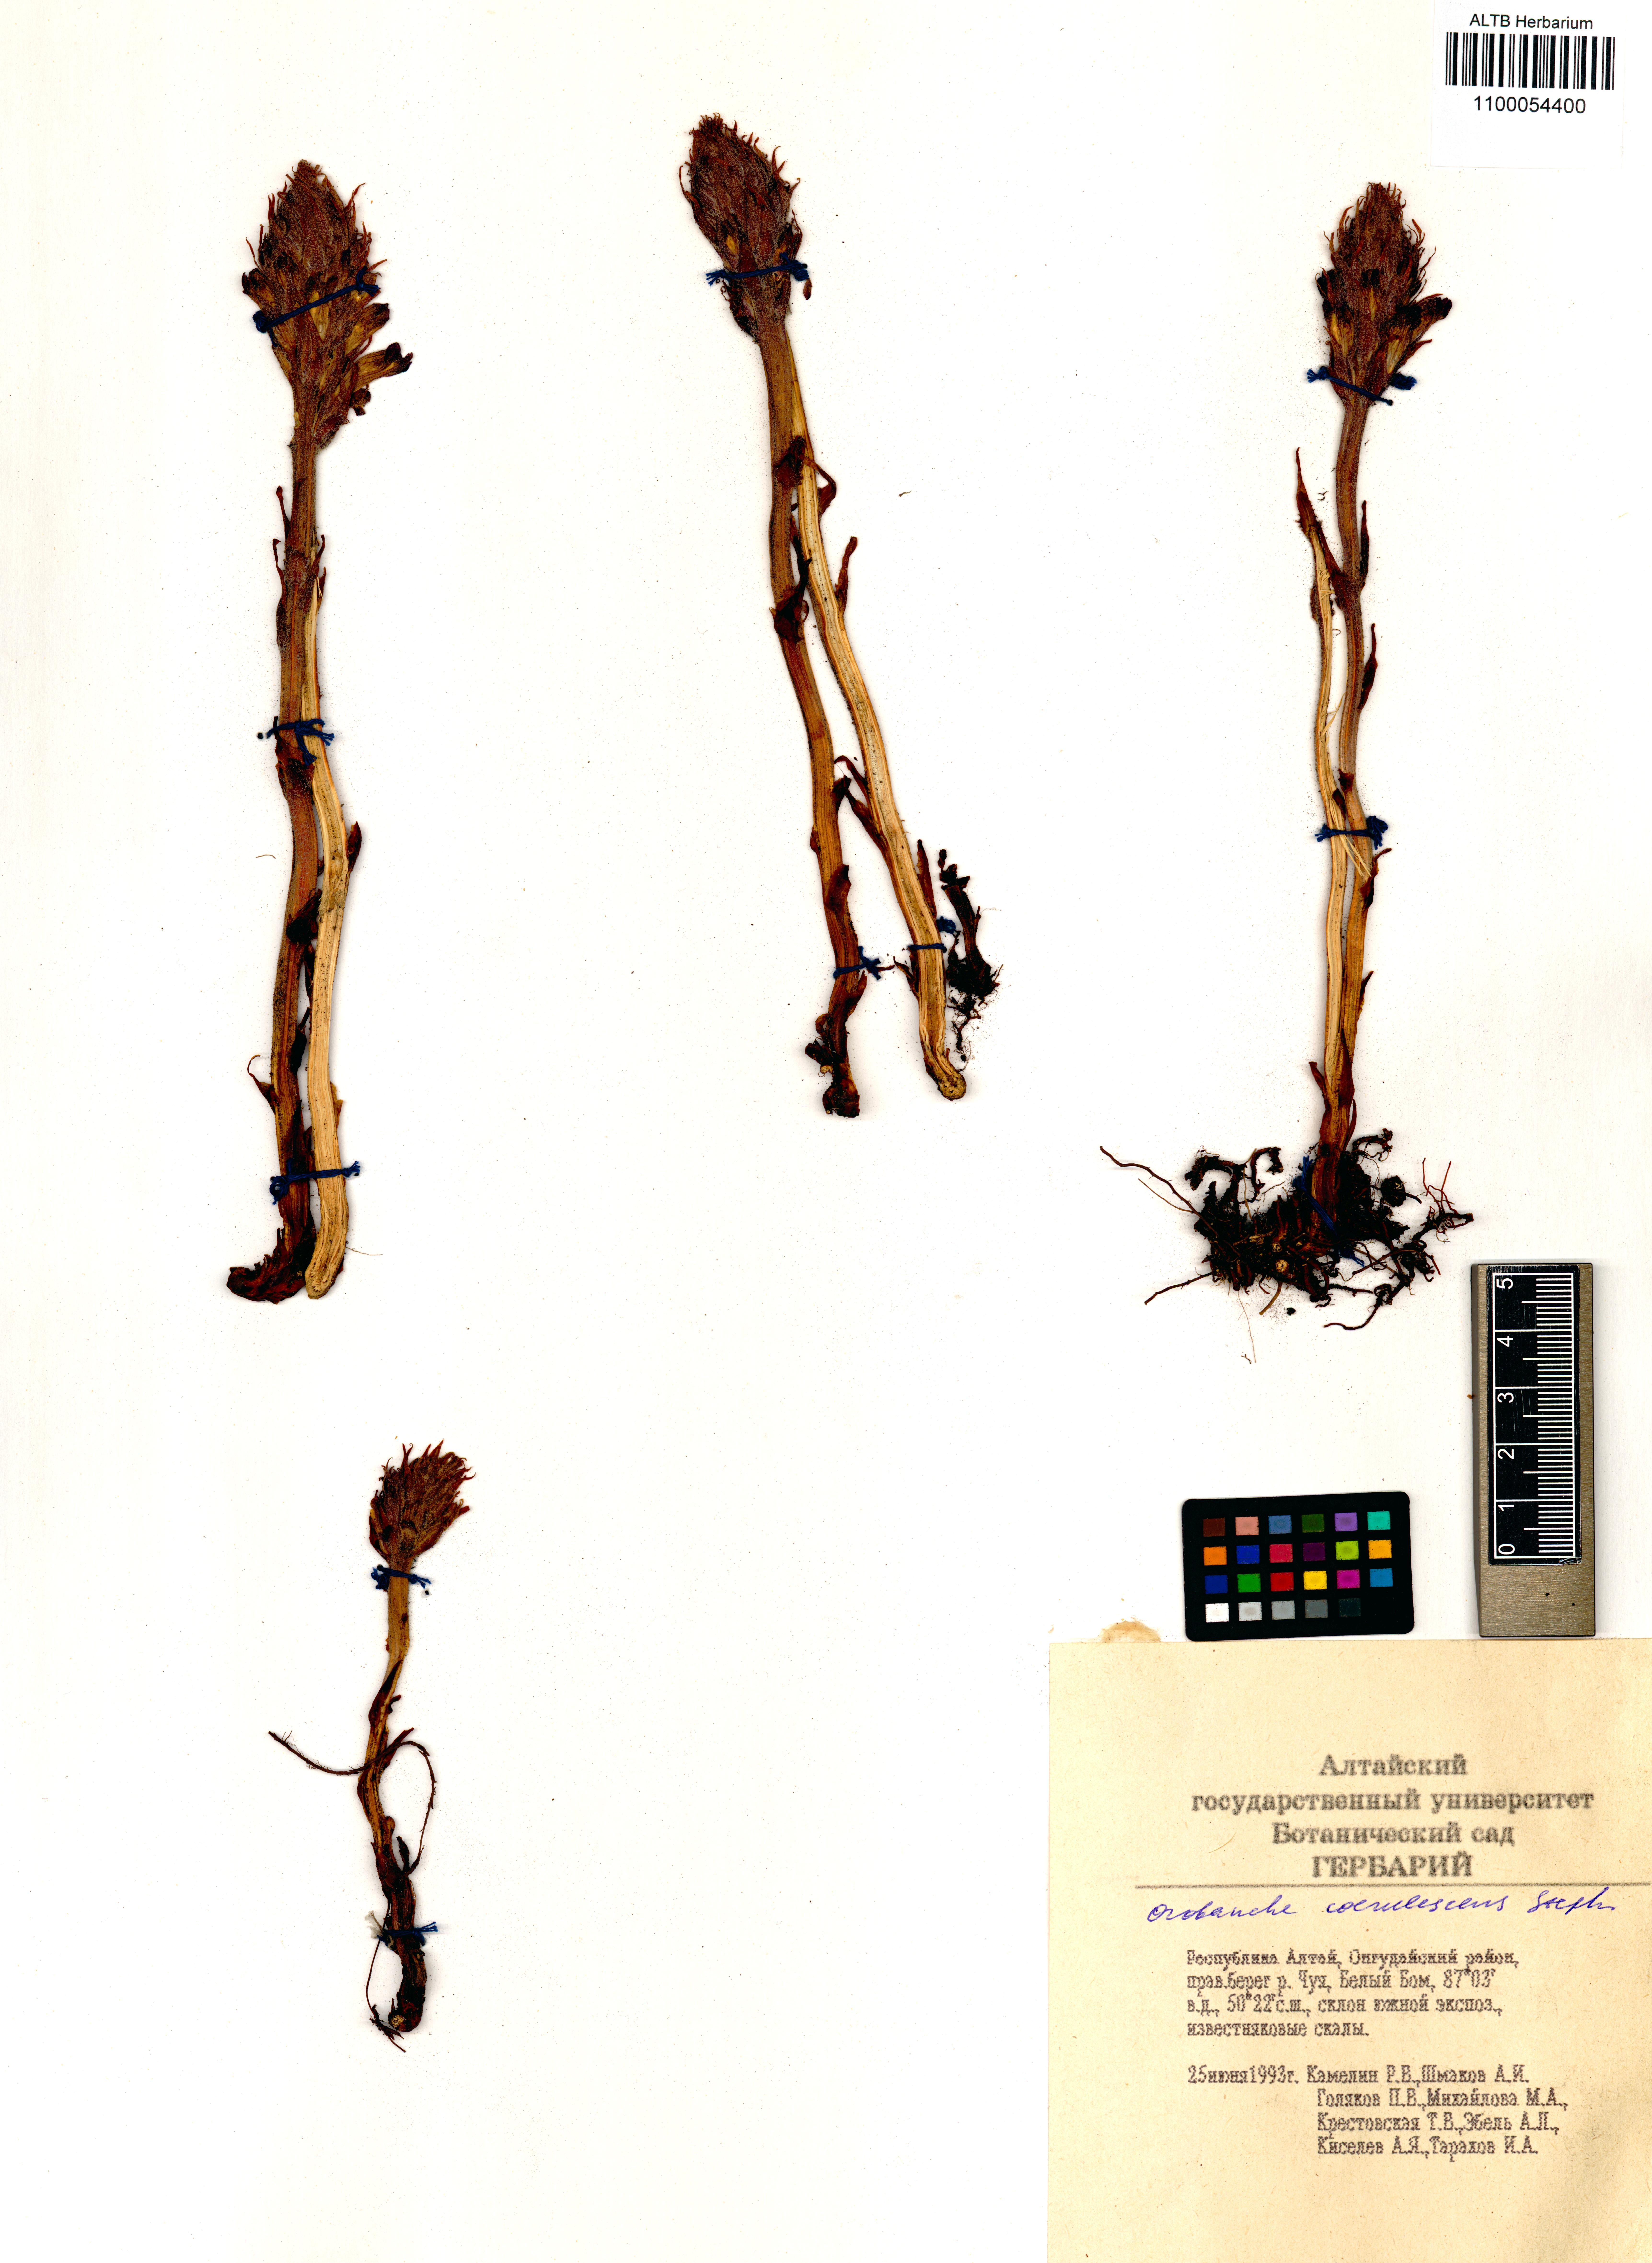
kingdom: Plantae
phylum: Tracheophyta
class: Magnoliopsida
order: Lamiales
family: Orobanchaceae
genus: Orobanche
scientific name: Orobanche coerulescens
